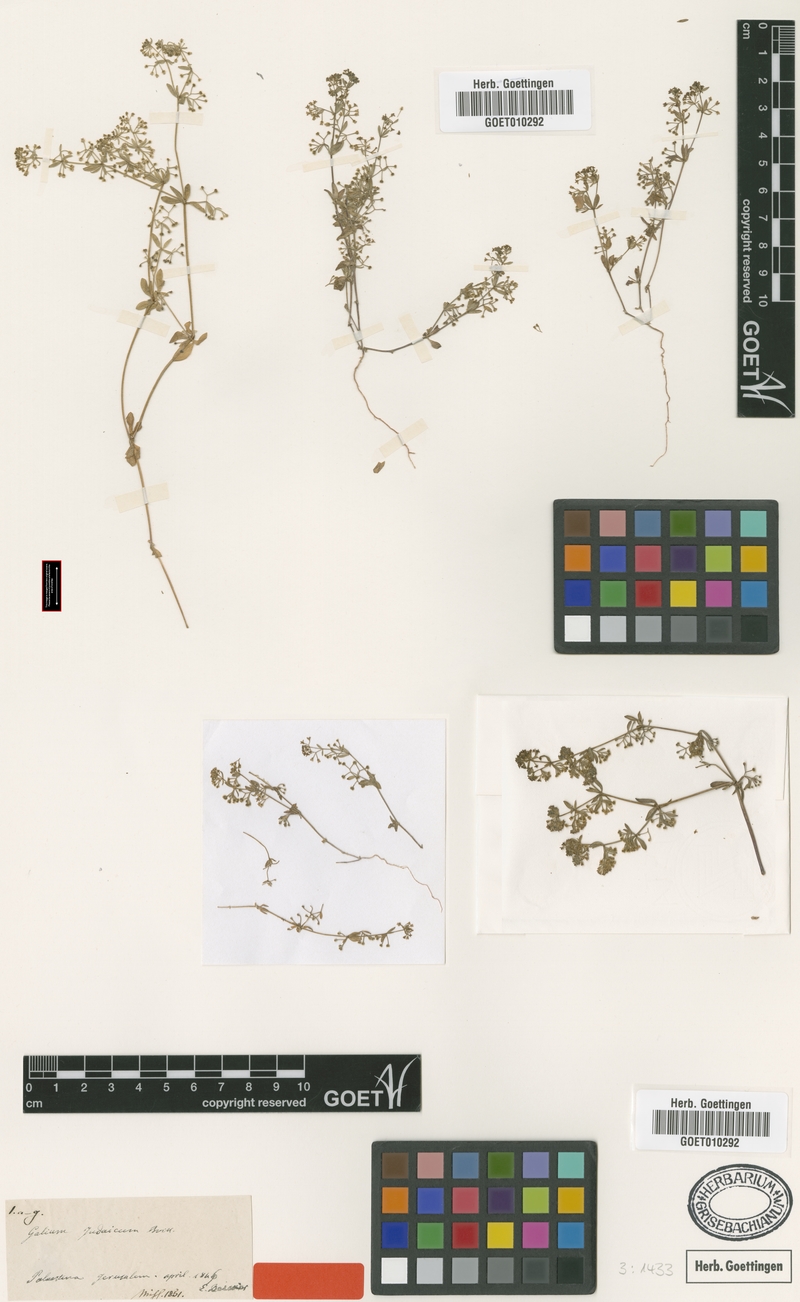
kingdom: Plantae
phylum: Tracheophyta
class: Magnoliopsida
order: Gentianales
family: Rubiaceae
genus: Galium
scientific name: Galium judaicum
